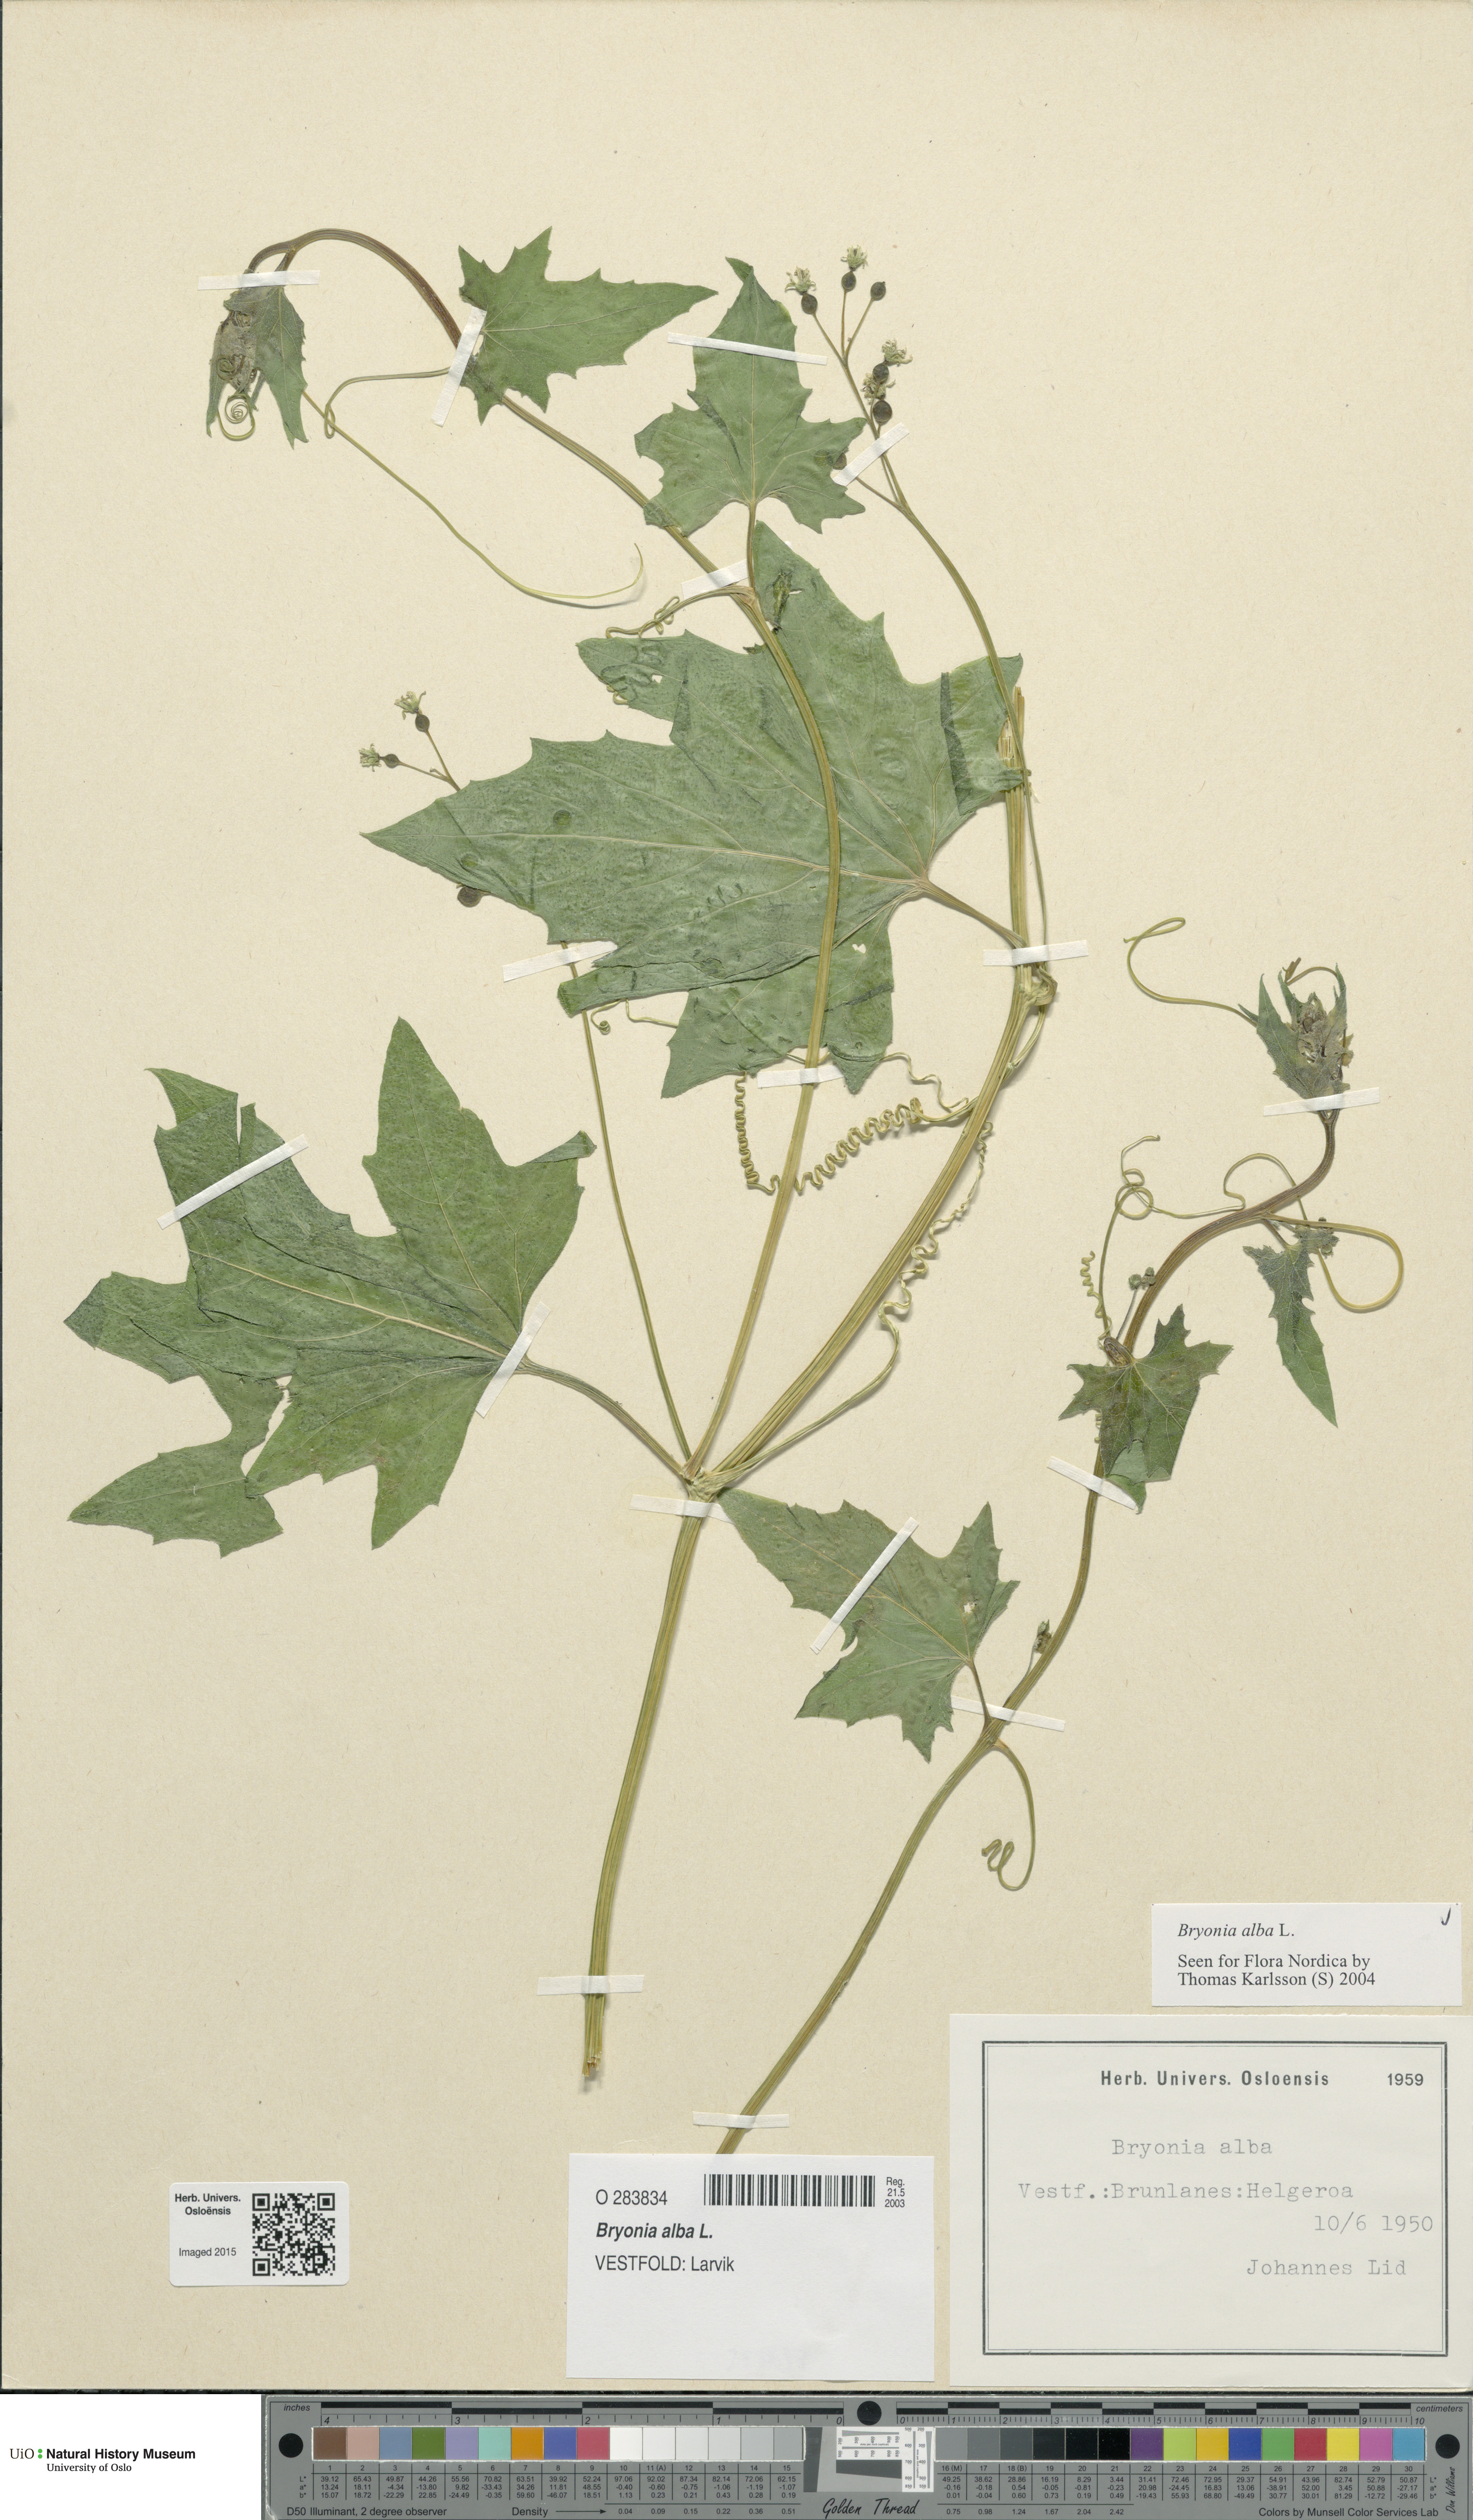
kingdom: Plantae
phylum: Tracheophyta
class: Magnoliopsida
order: Cucurbitales
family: Cucurbitaceae
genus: Bryonia
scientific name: Bryonia alba
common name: White bryony
